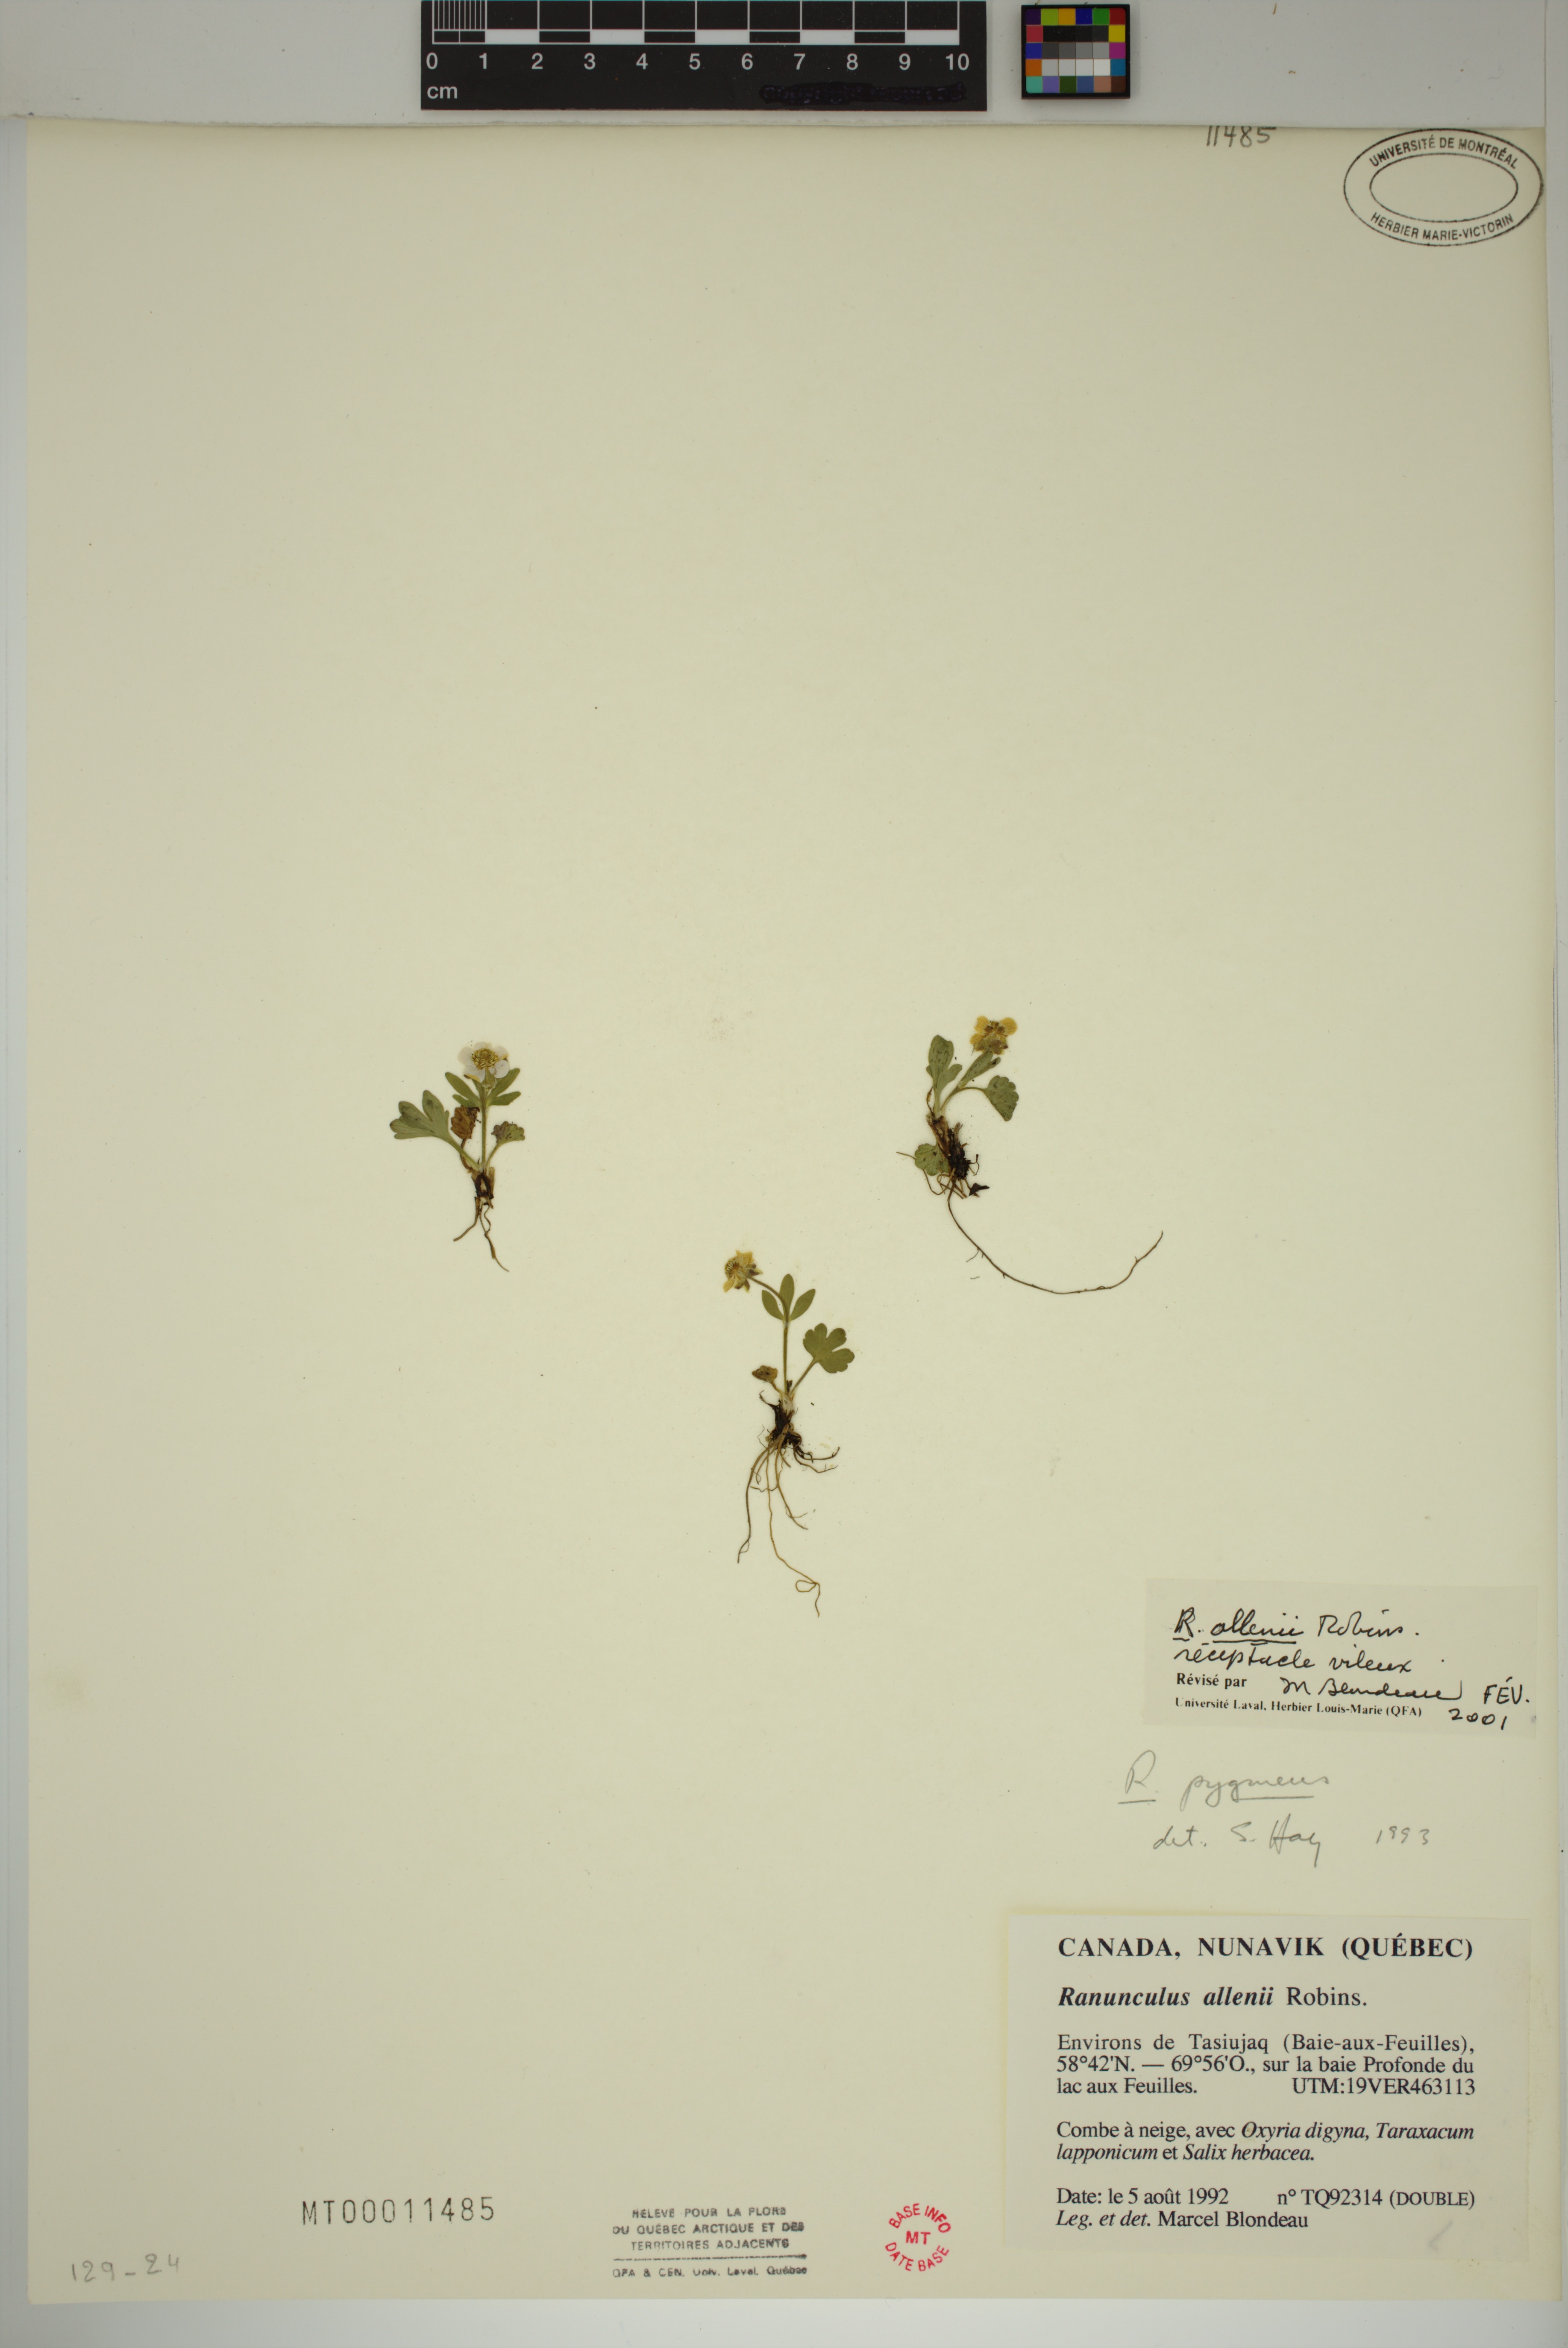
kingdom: Plantae
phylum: Tracheophyta
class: Magnoliopsida
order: Ranunculales
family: Ranunculaceae
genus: Ranunculus
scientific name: Ranunculus allenii
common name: Allen's buttercup
